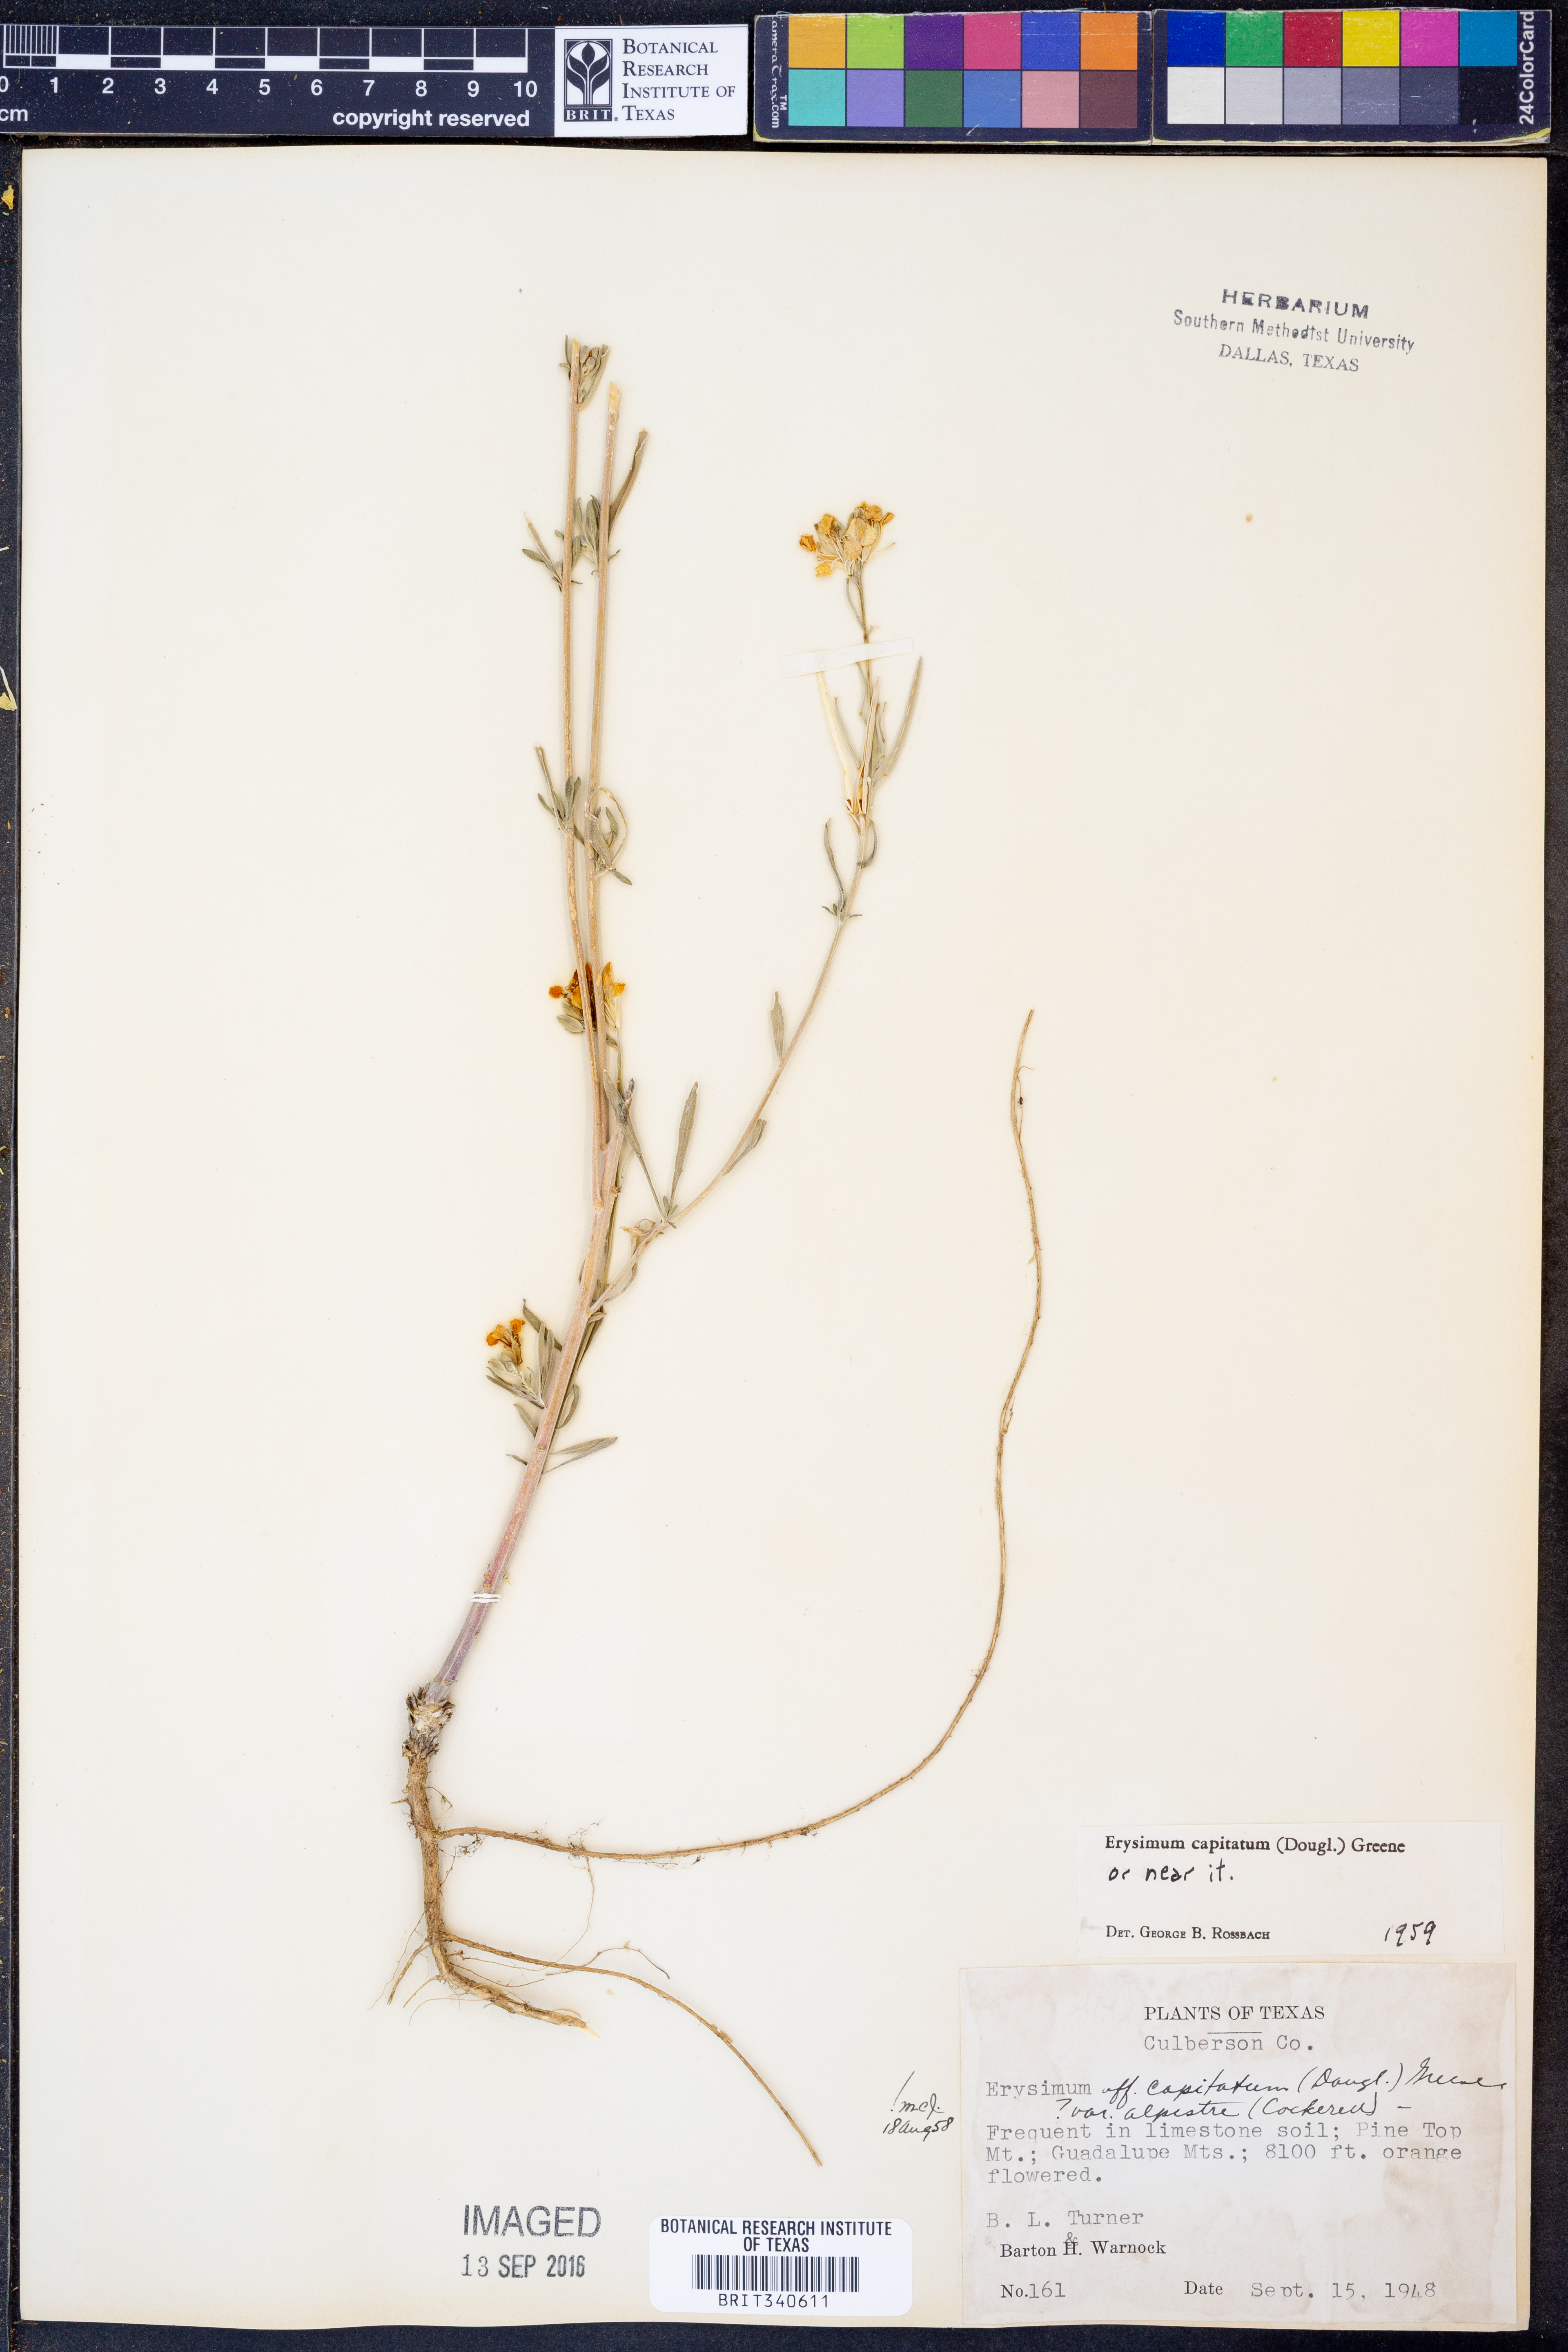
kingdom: Plantae
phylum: Tracheophyta
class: Magnoliopsida
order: Brassicales
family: Brassicaceae
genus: Erysimum
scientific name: Erysimum capitatum
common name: Western wallflower
